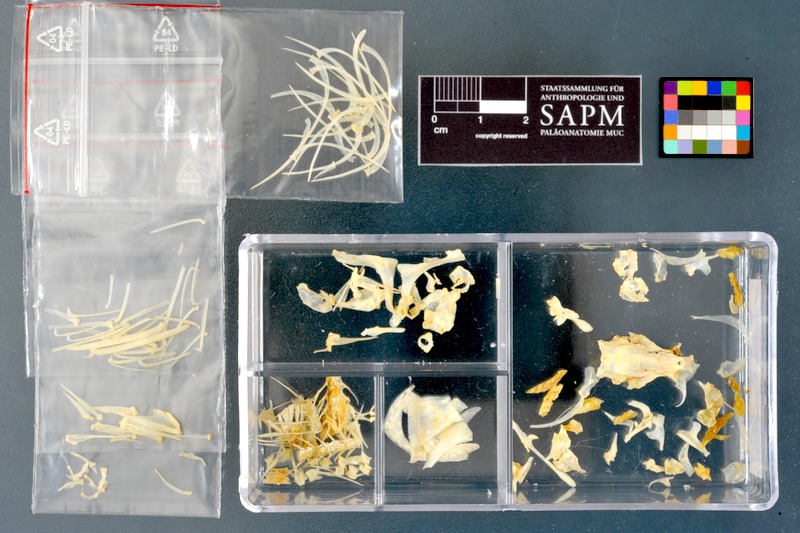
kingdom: Animalia
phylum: Chordata
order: Cypriniformes
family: Cyprinidae
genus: Acanthobrama
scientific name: Acanthobrama marmid
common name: Mesopotamian bream
